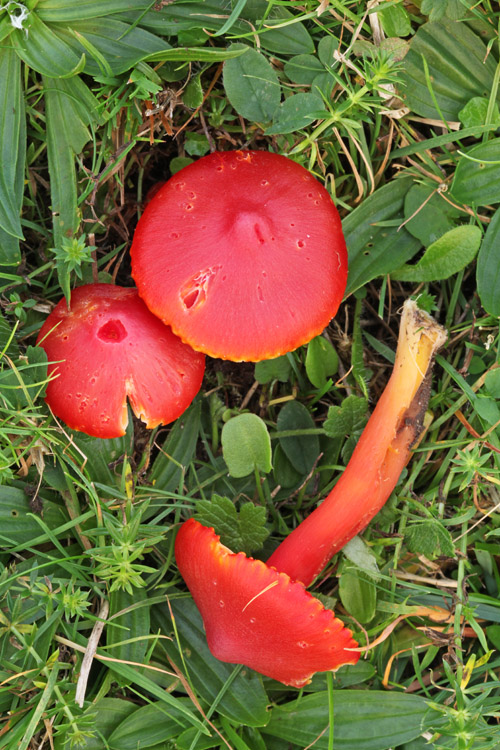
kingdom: Fungi
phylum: Basidiomycota
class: Agaricomycetes
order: Agaricales
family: Hygrophoraceae
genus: Hygrocybe
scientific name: Hygrocybe coccinea
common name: cinnober-vokshat
